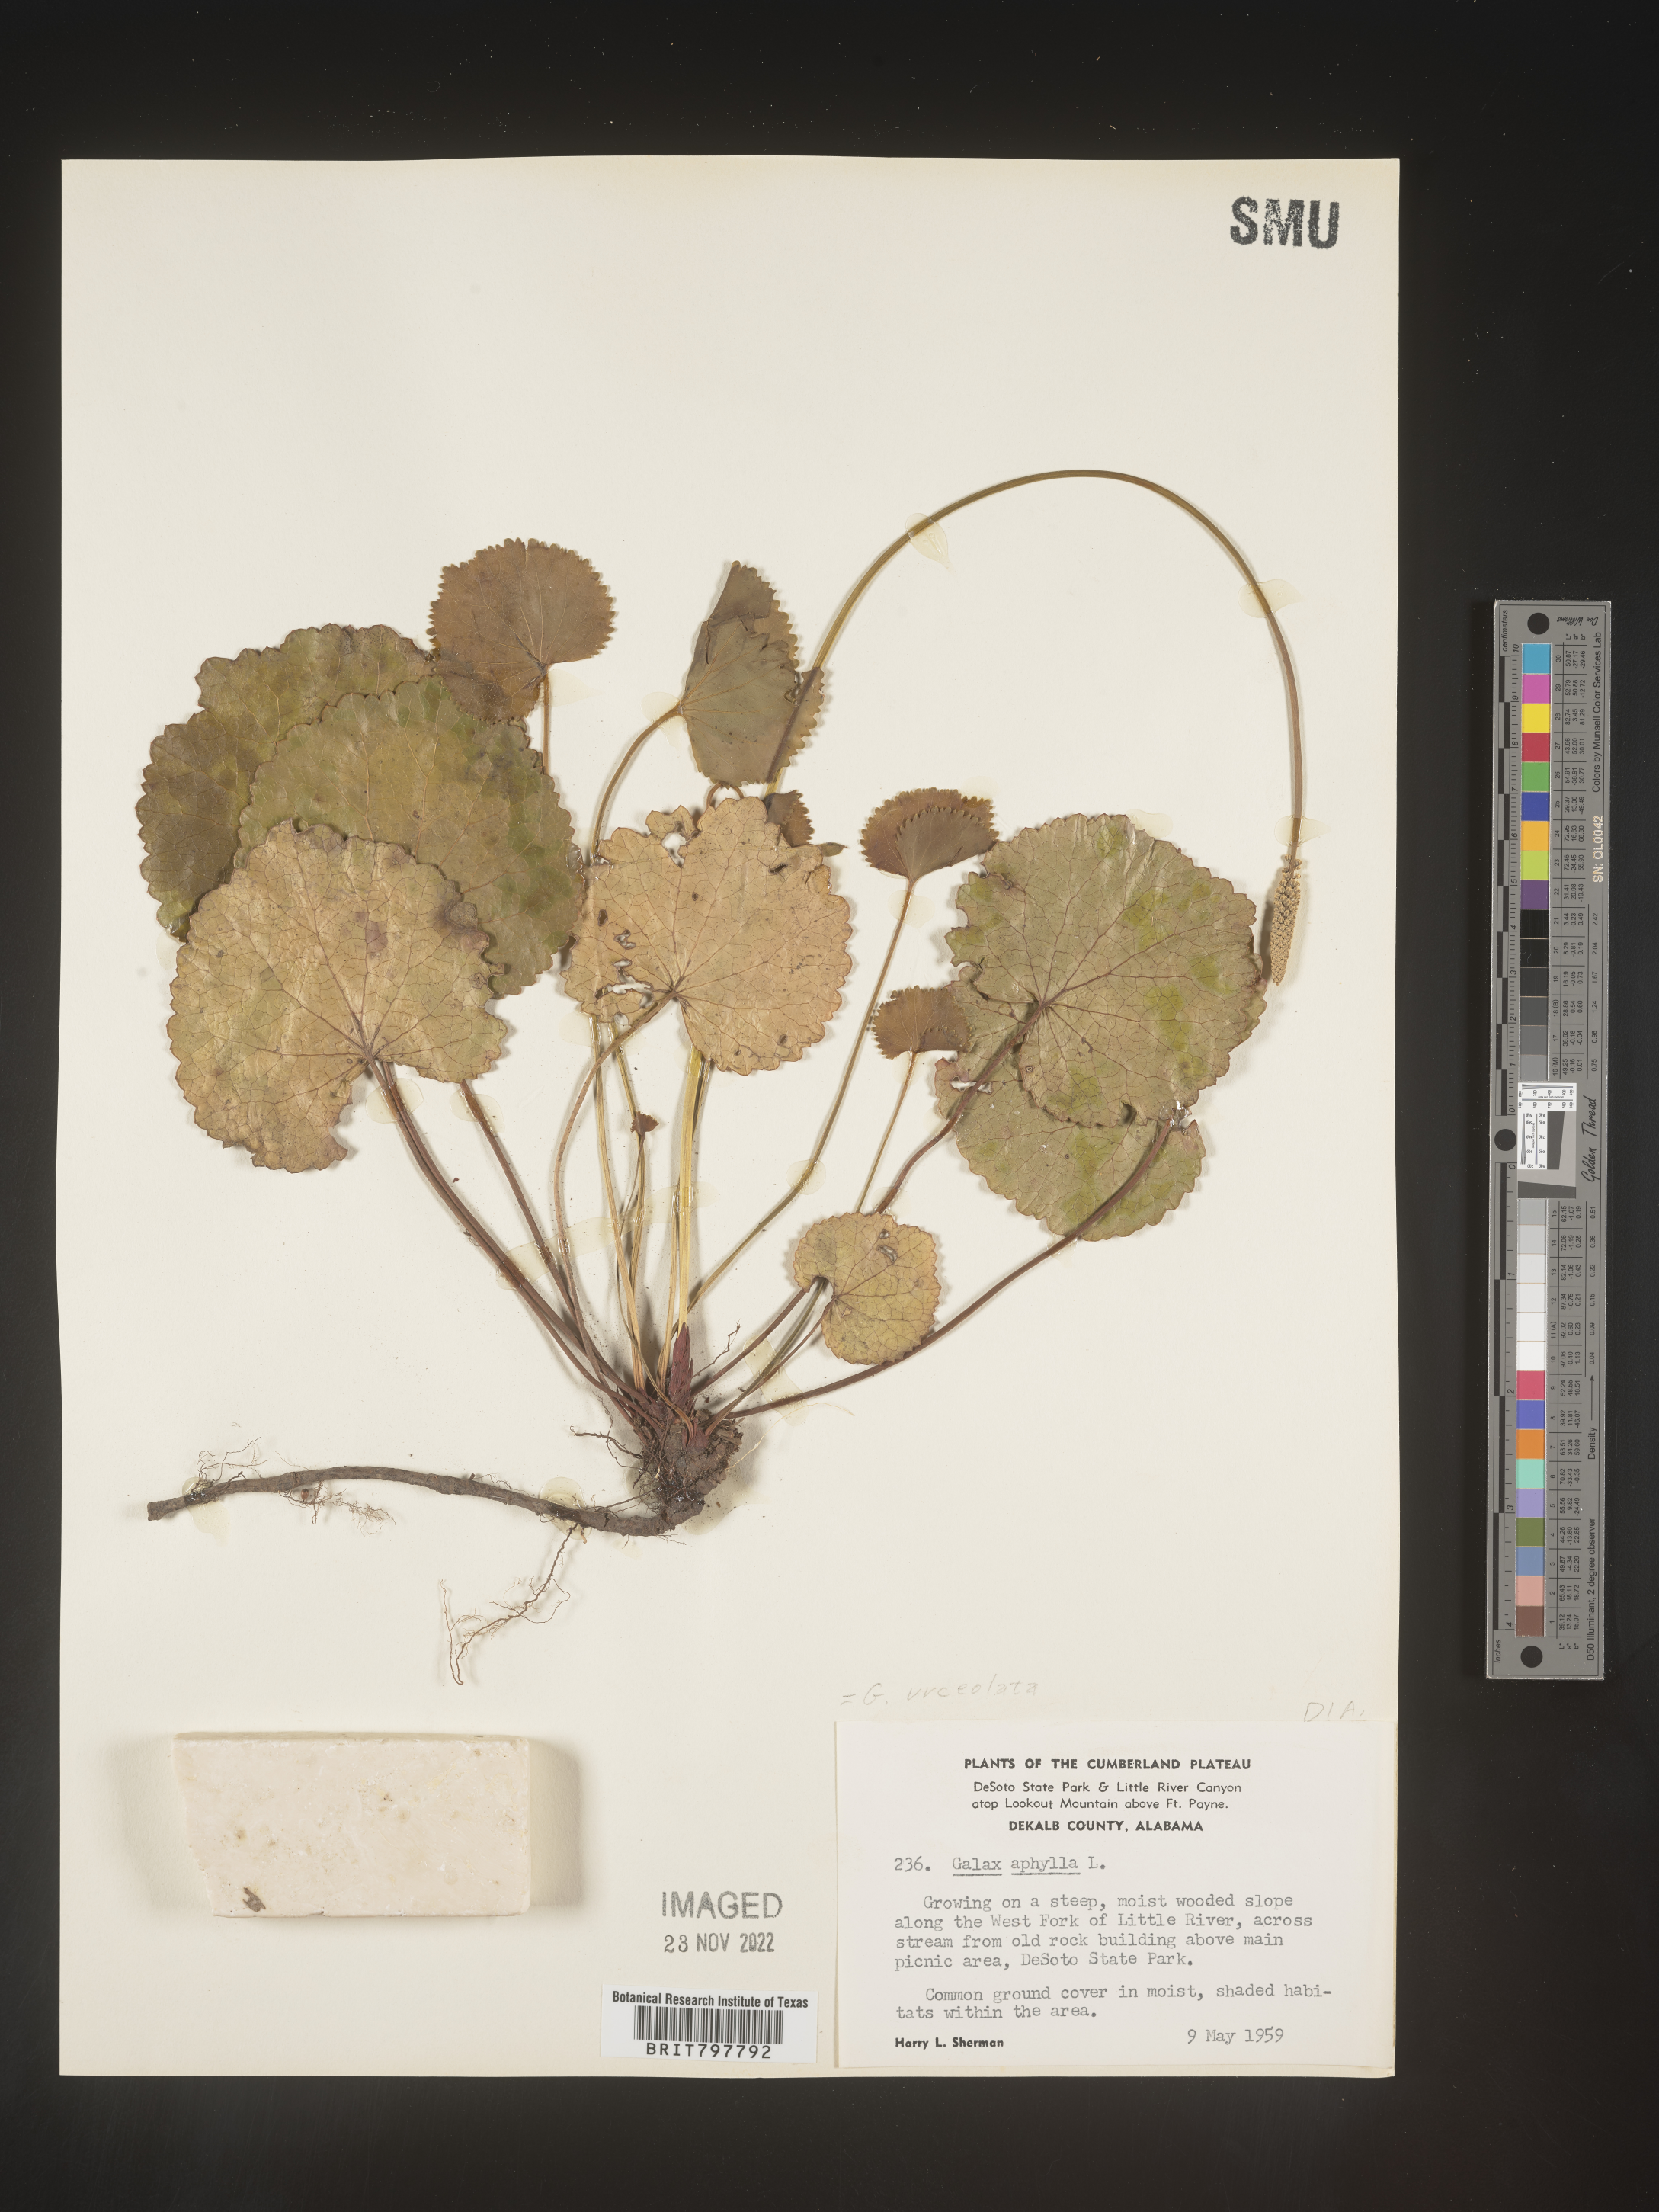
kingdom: Plantae
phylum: Tracheophyta
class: Magnoliopsida
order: Ericales
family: Diapensiaceae
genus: Galax
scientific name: Galax
